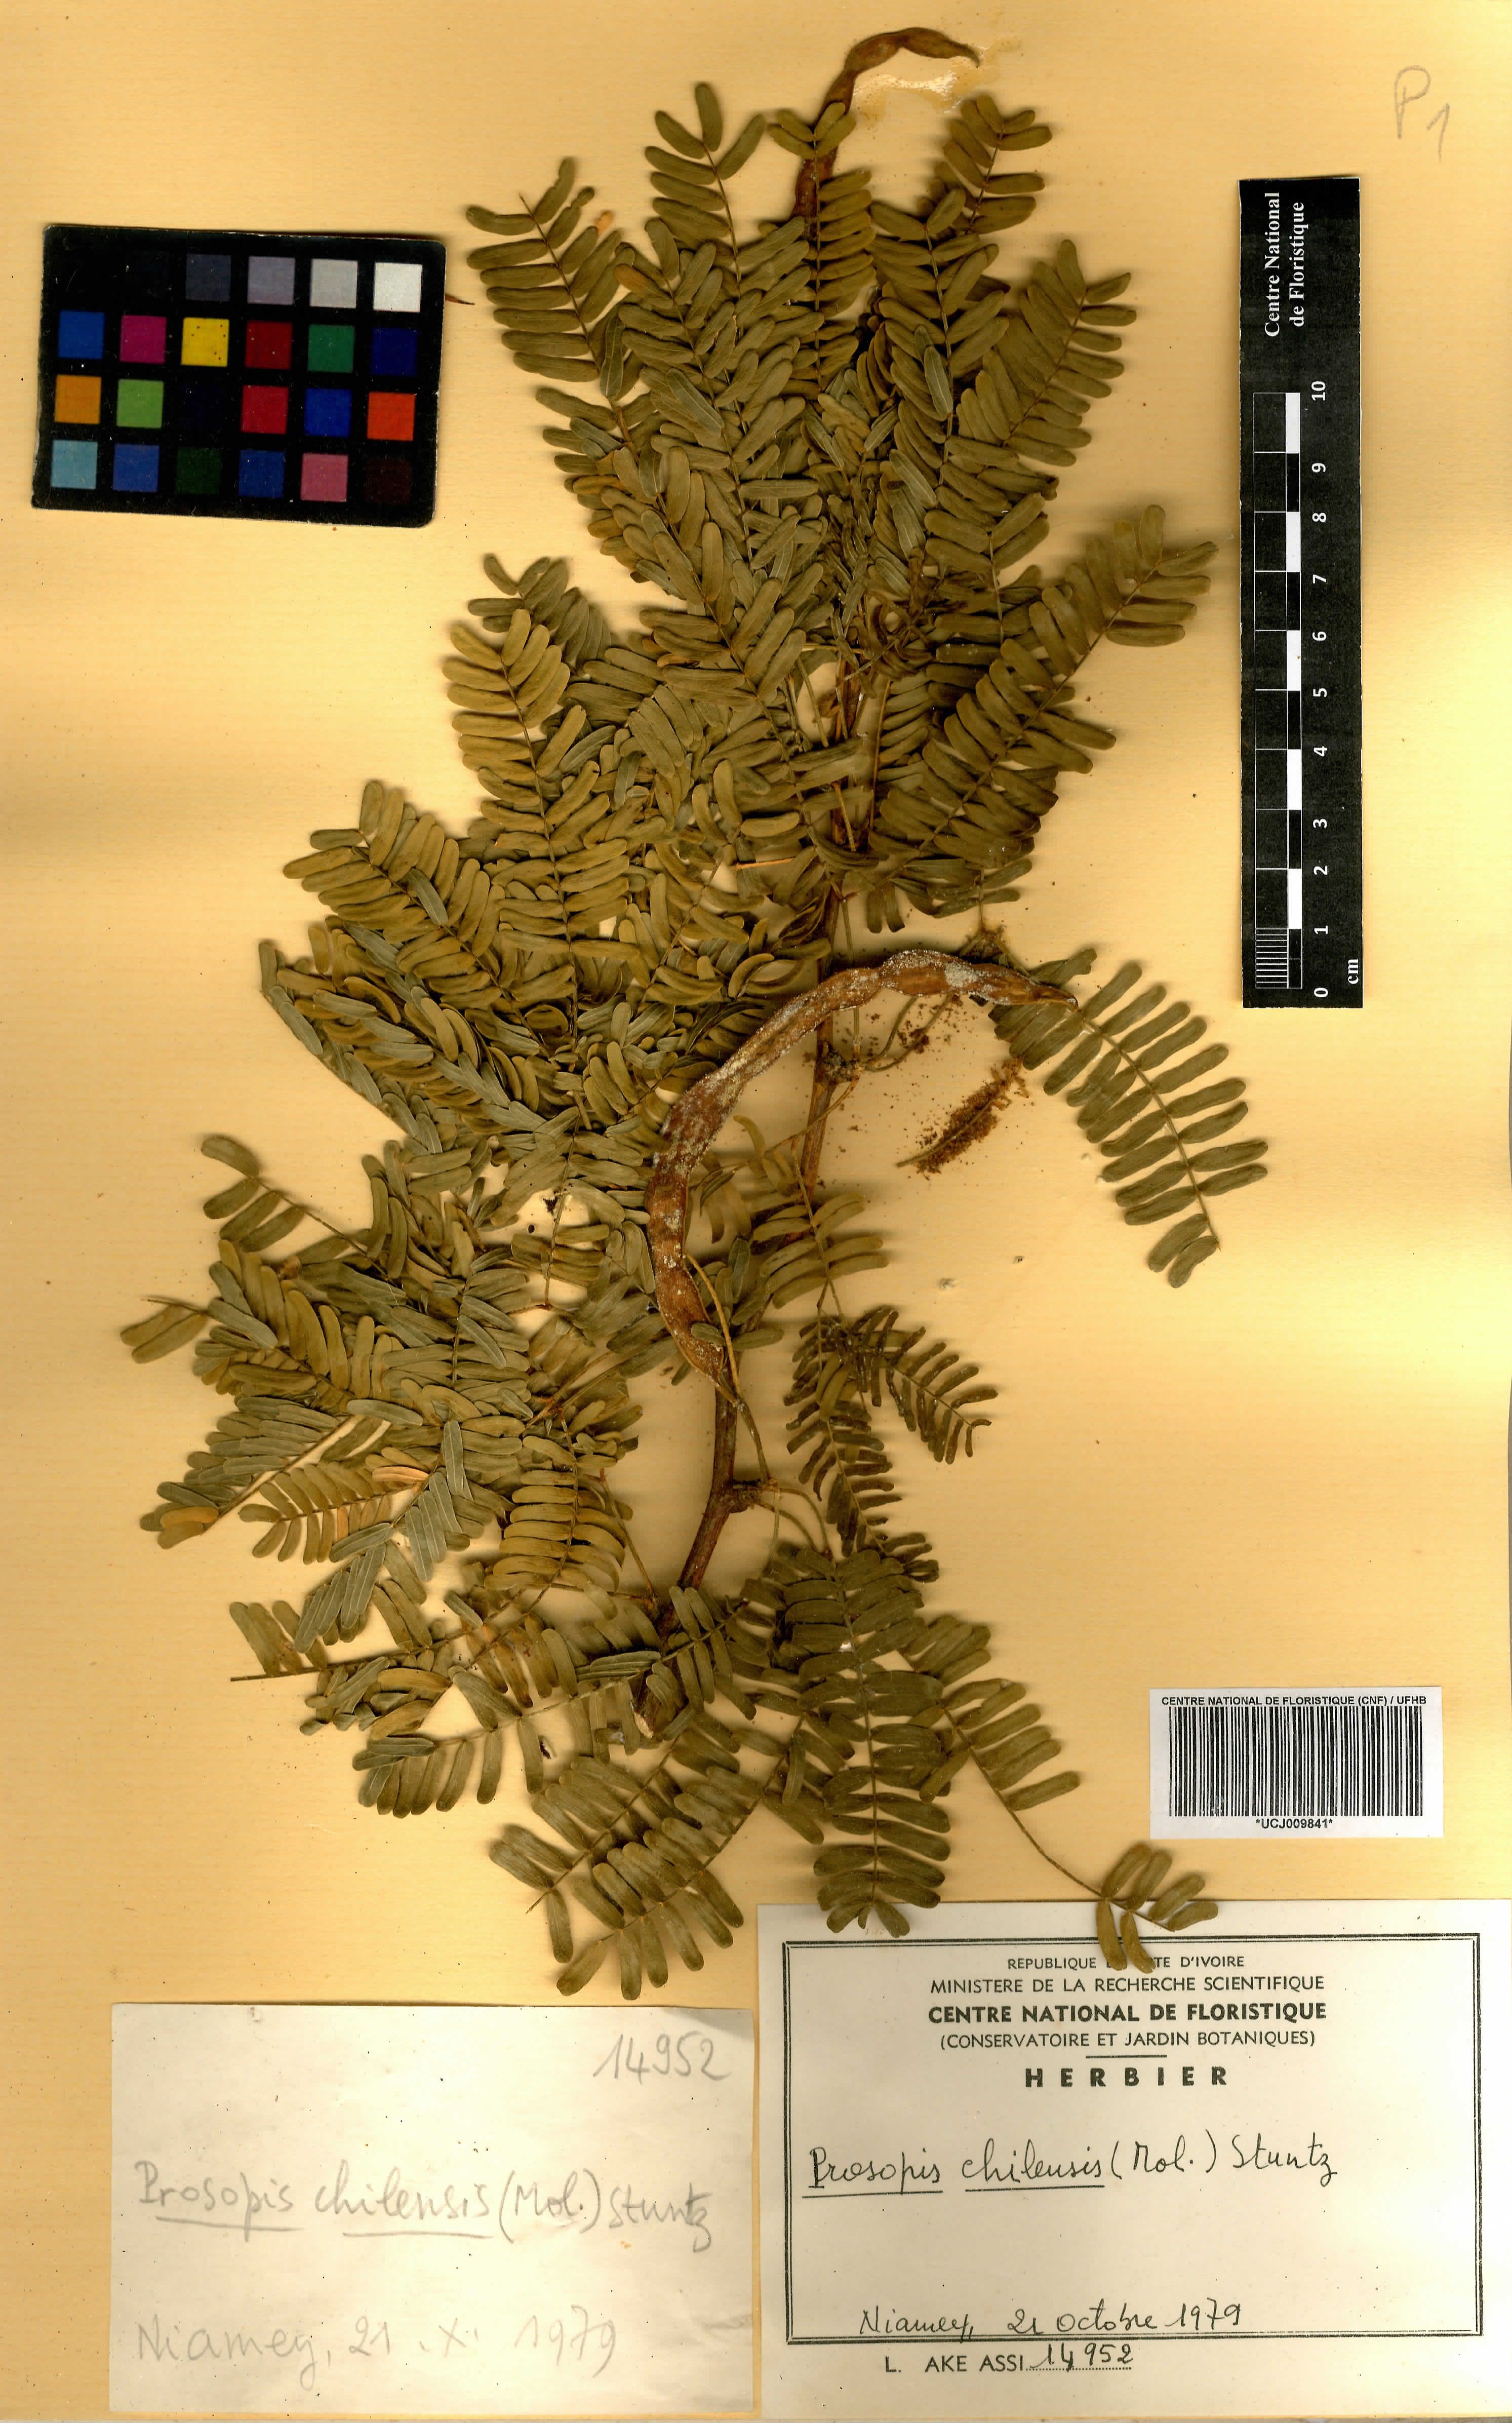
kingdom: Plantae
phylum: Tracheophyta
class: Magnoliopsida
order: Fabales
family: Fabaceae
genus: Prosopis
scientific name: Prosopis chilensis
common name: Chilean algarrobo
